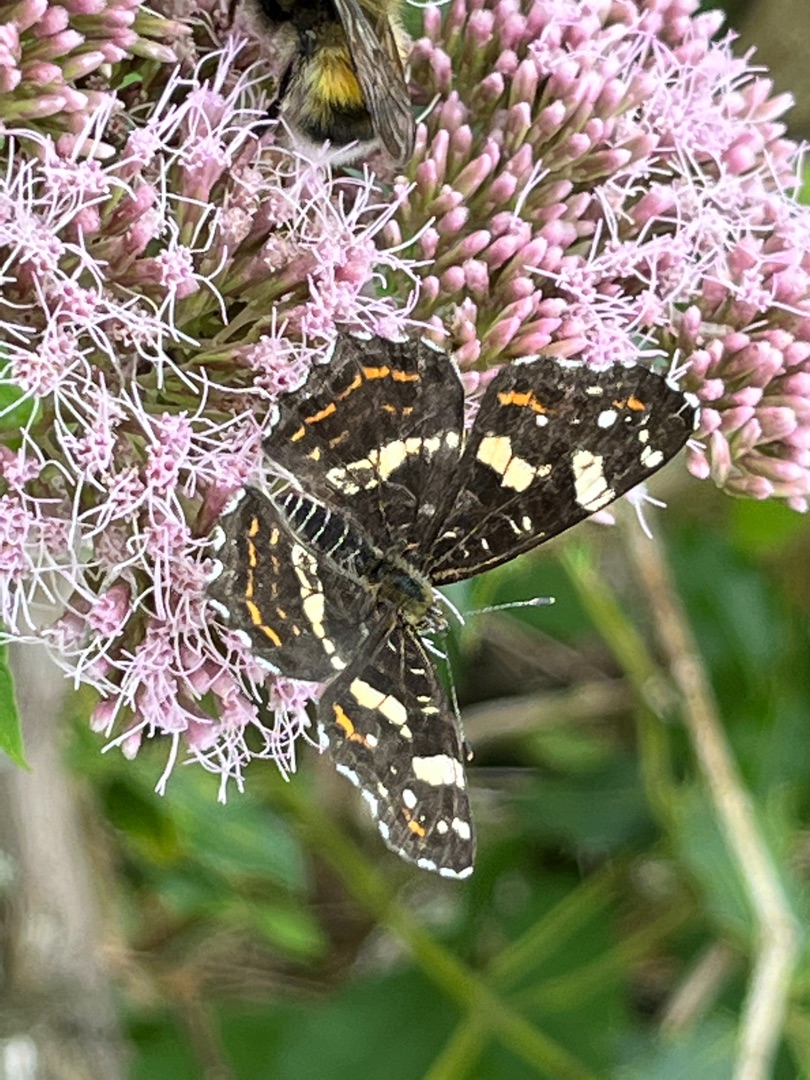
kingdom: Animalia
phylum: Arthropoda
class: Insecta
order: Lepidoptera
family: Nymphalidae
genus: Araschnia
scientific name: Araschnia levana
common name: Nældesommerfugl
